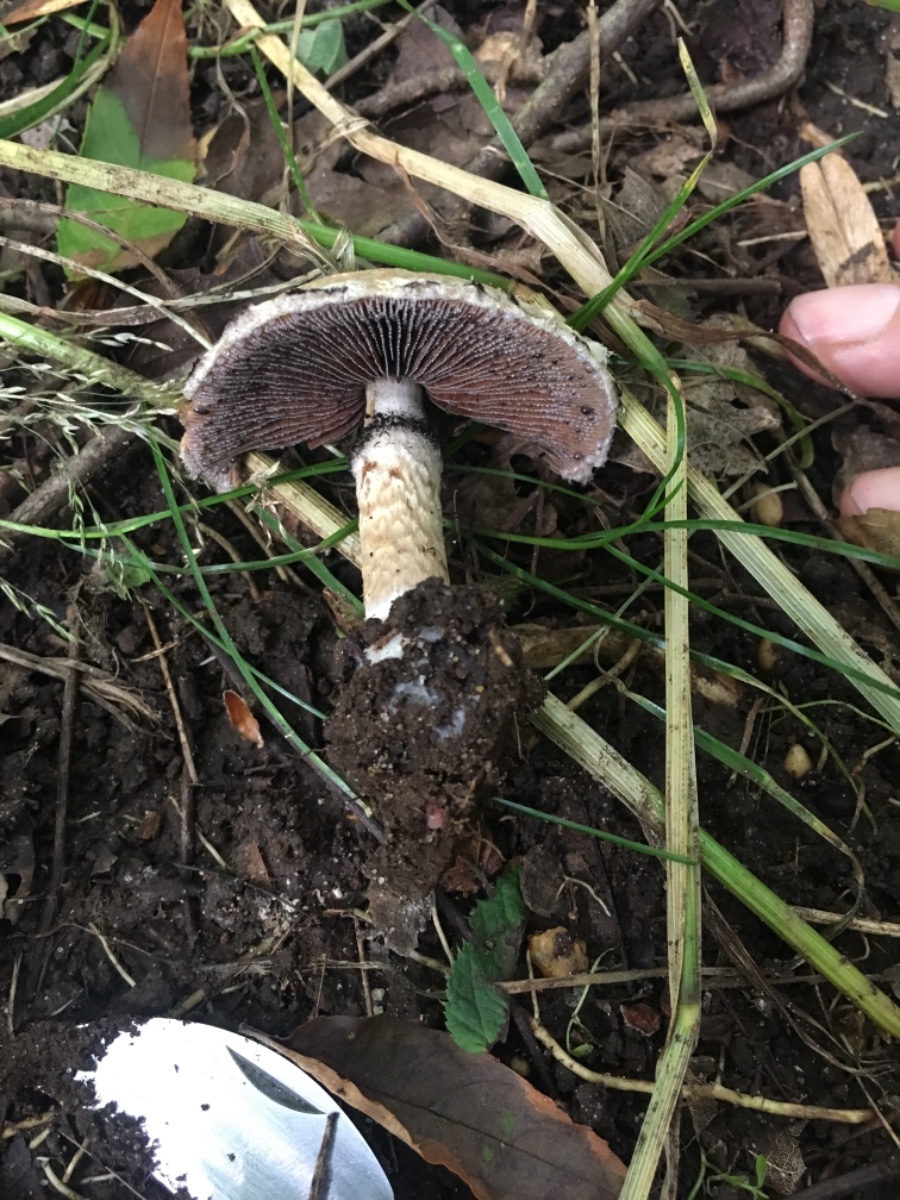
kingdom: Fungi
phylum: Basidiomycota
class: Agaricomycetes
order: Agaricales
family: Psathyrellaceae
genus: Lacrymaria
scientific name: Lacrymaria lacrymabunda
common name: grædende mørkhat
